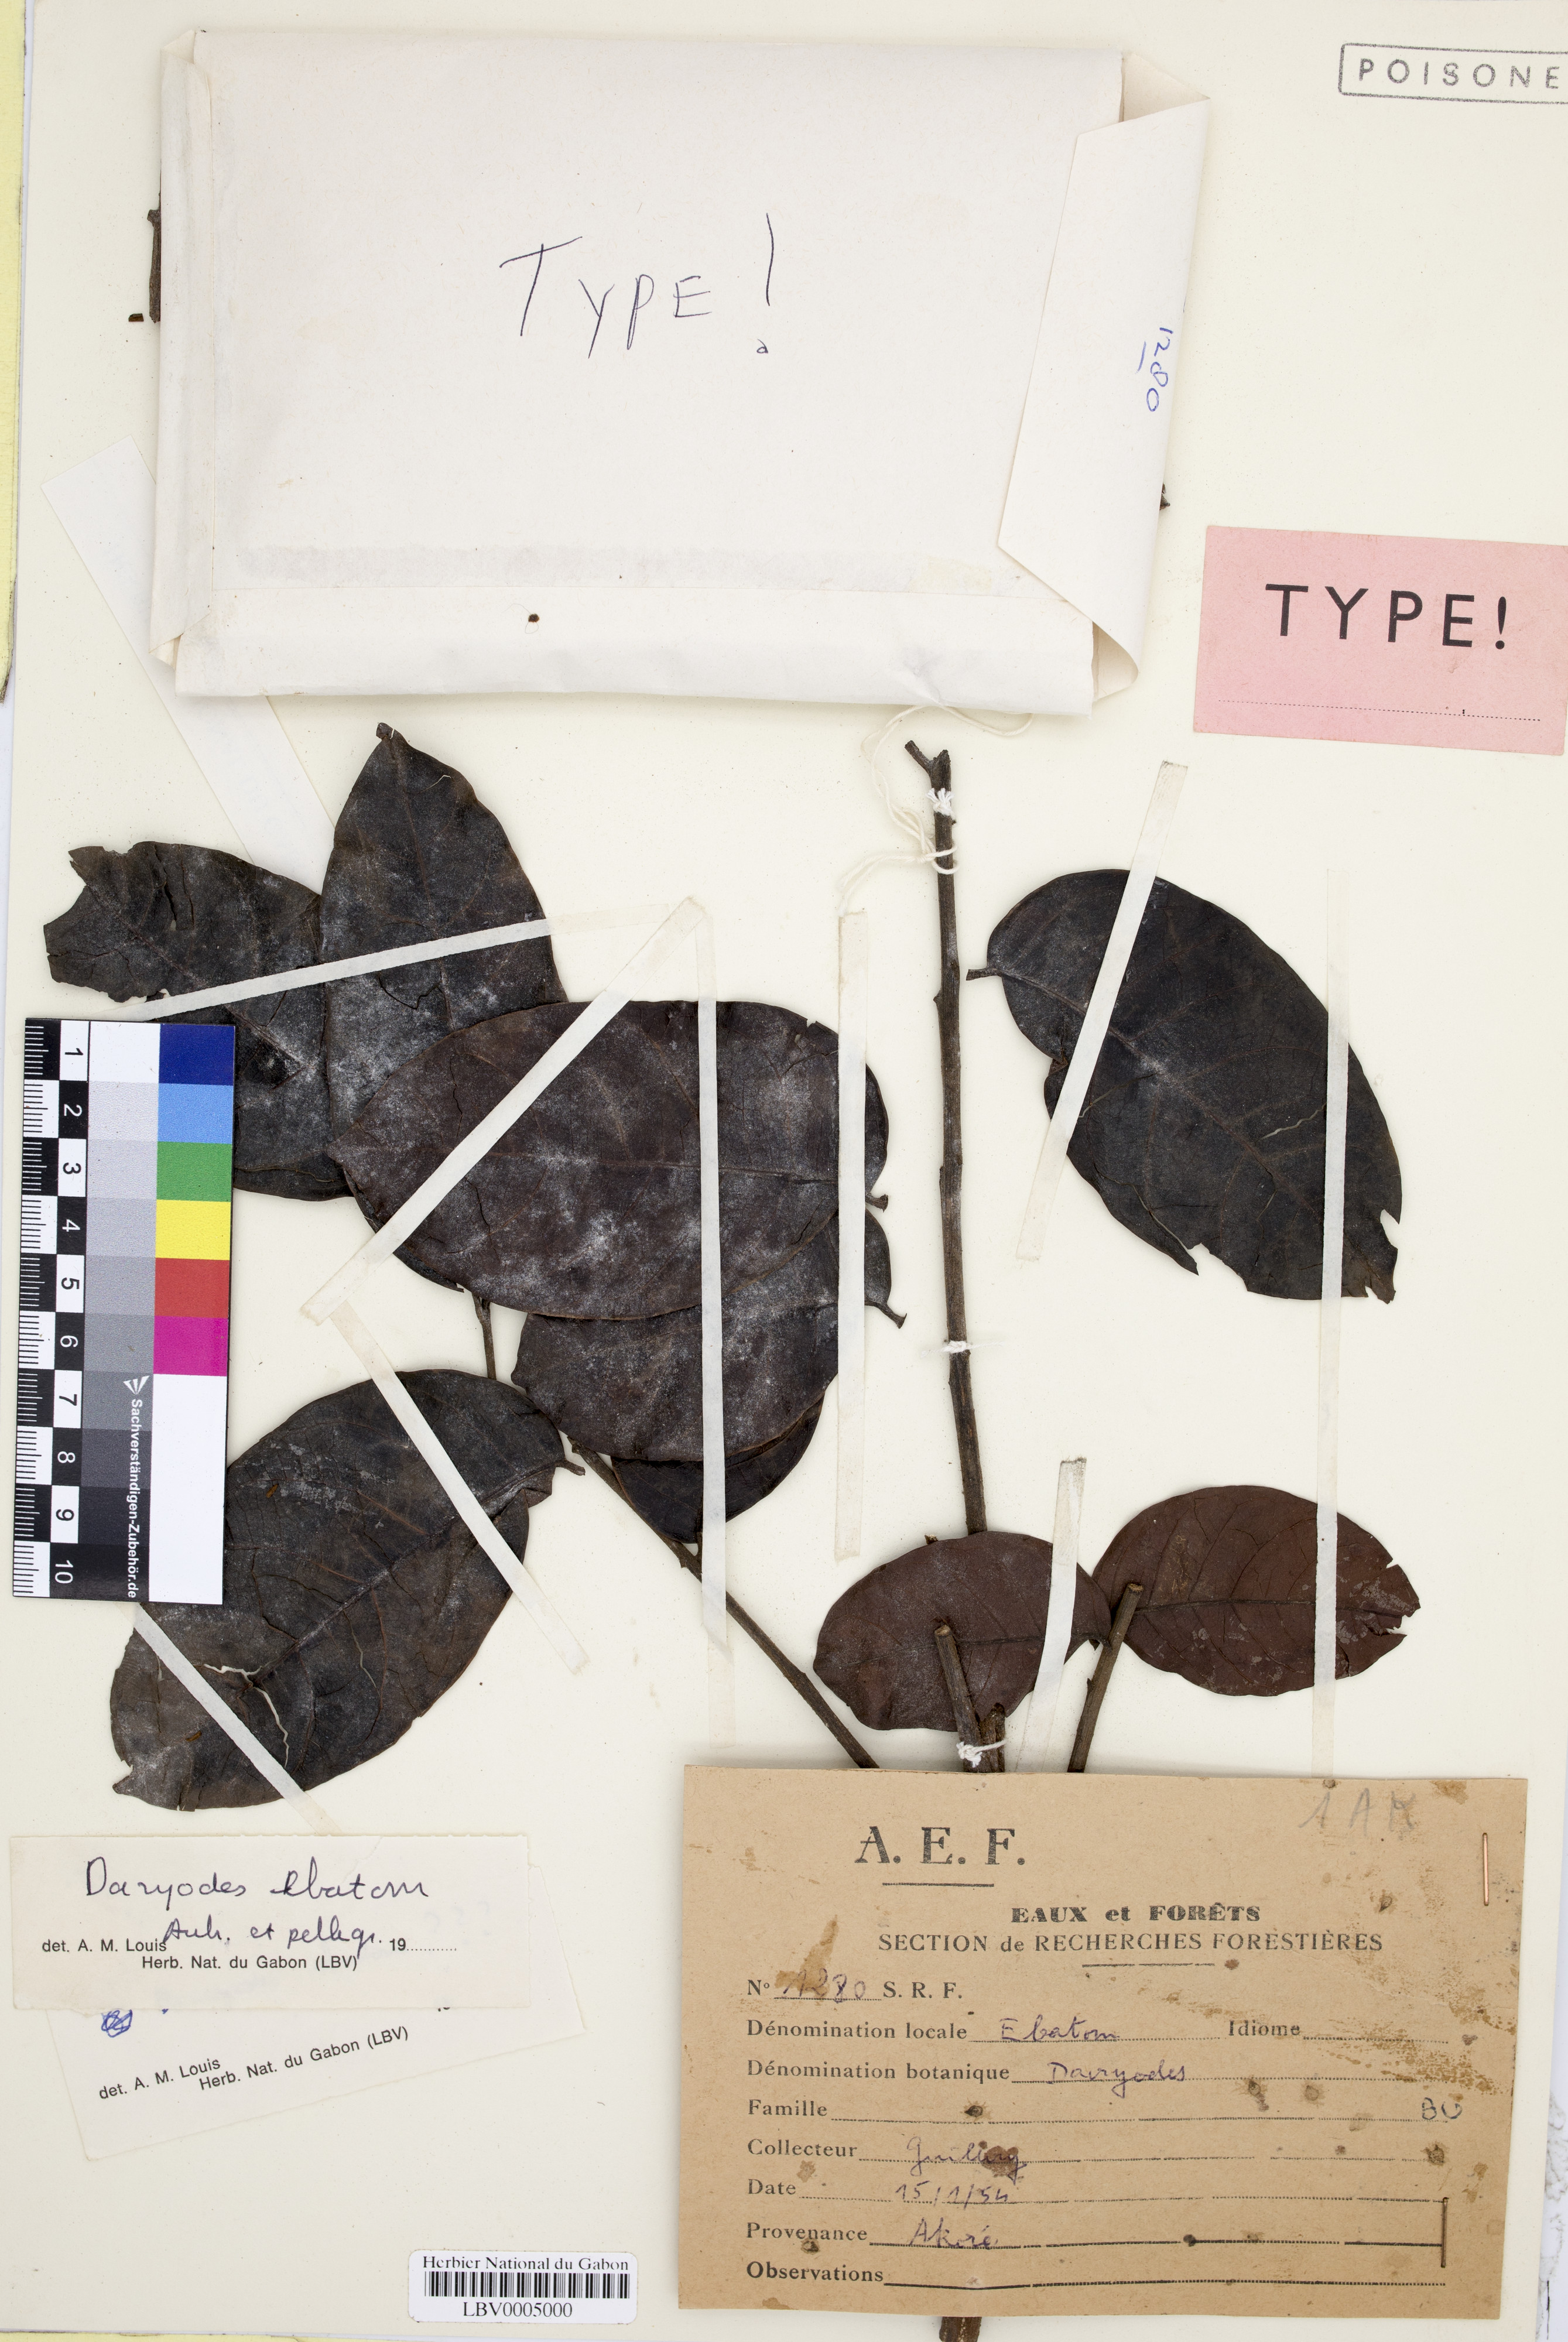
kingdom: Plantae
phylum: Tracheophyta
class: Magnoliopsida
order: Sapindales
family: Burseraceae
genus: Pachylobus
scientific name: Pachylobus ebatom
